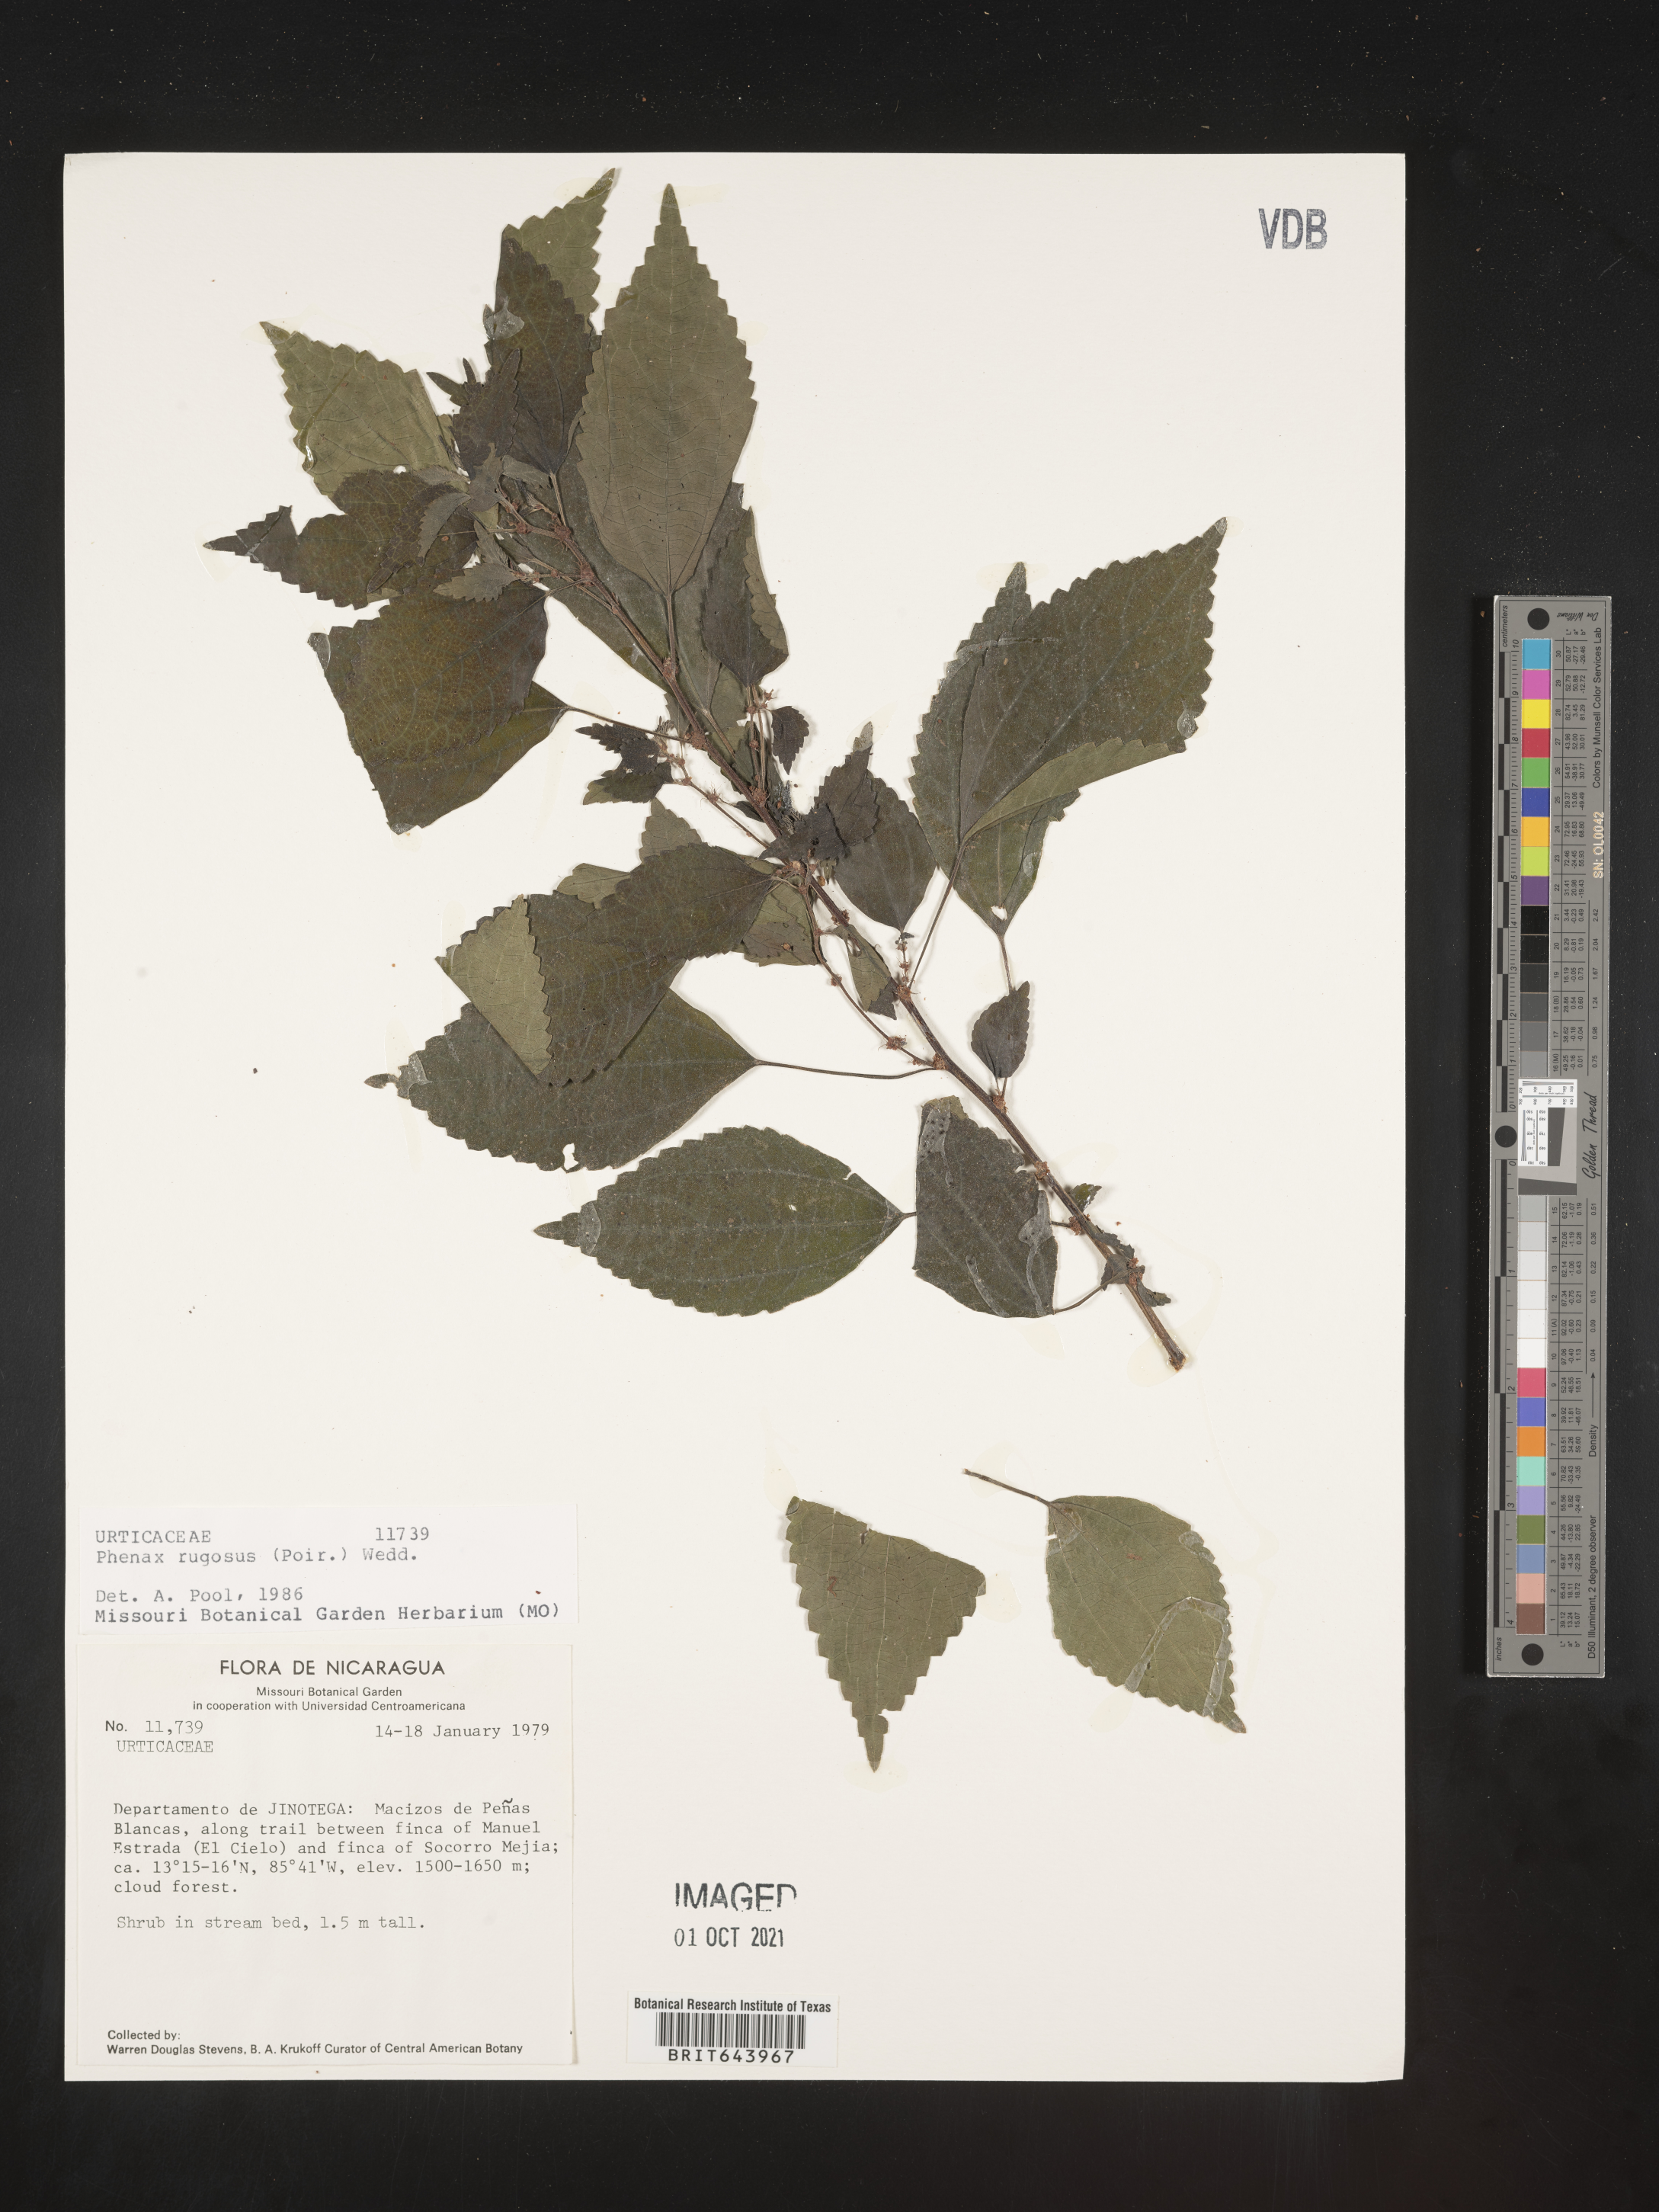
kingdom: Plantae
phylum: Tracheophyta
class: Magnoliopsida
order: Rosales
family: Urticaceae
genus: Phenax
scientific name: Phenax
